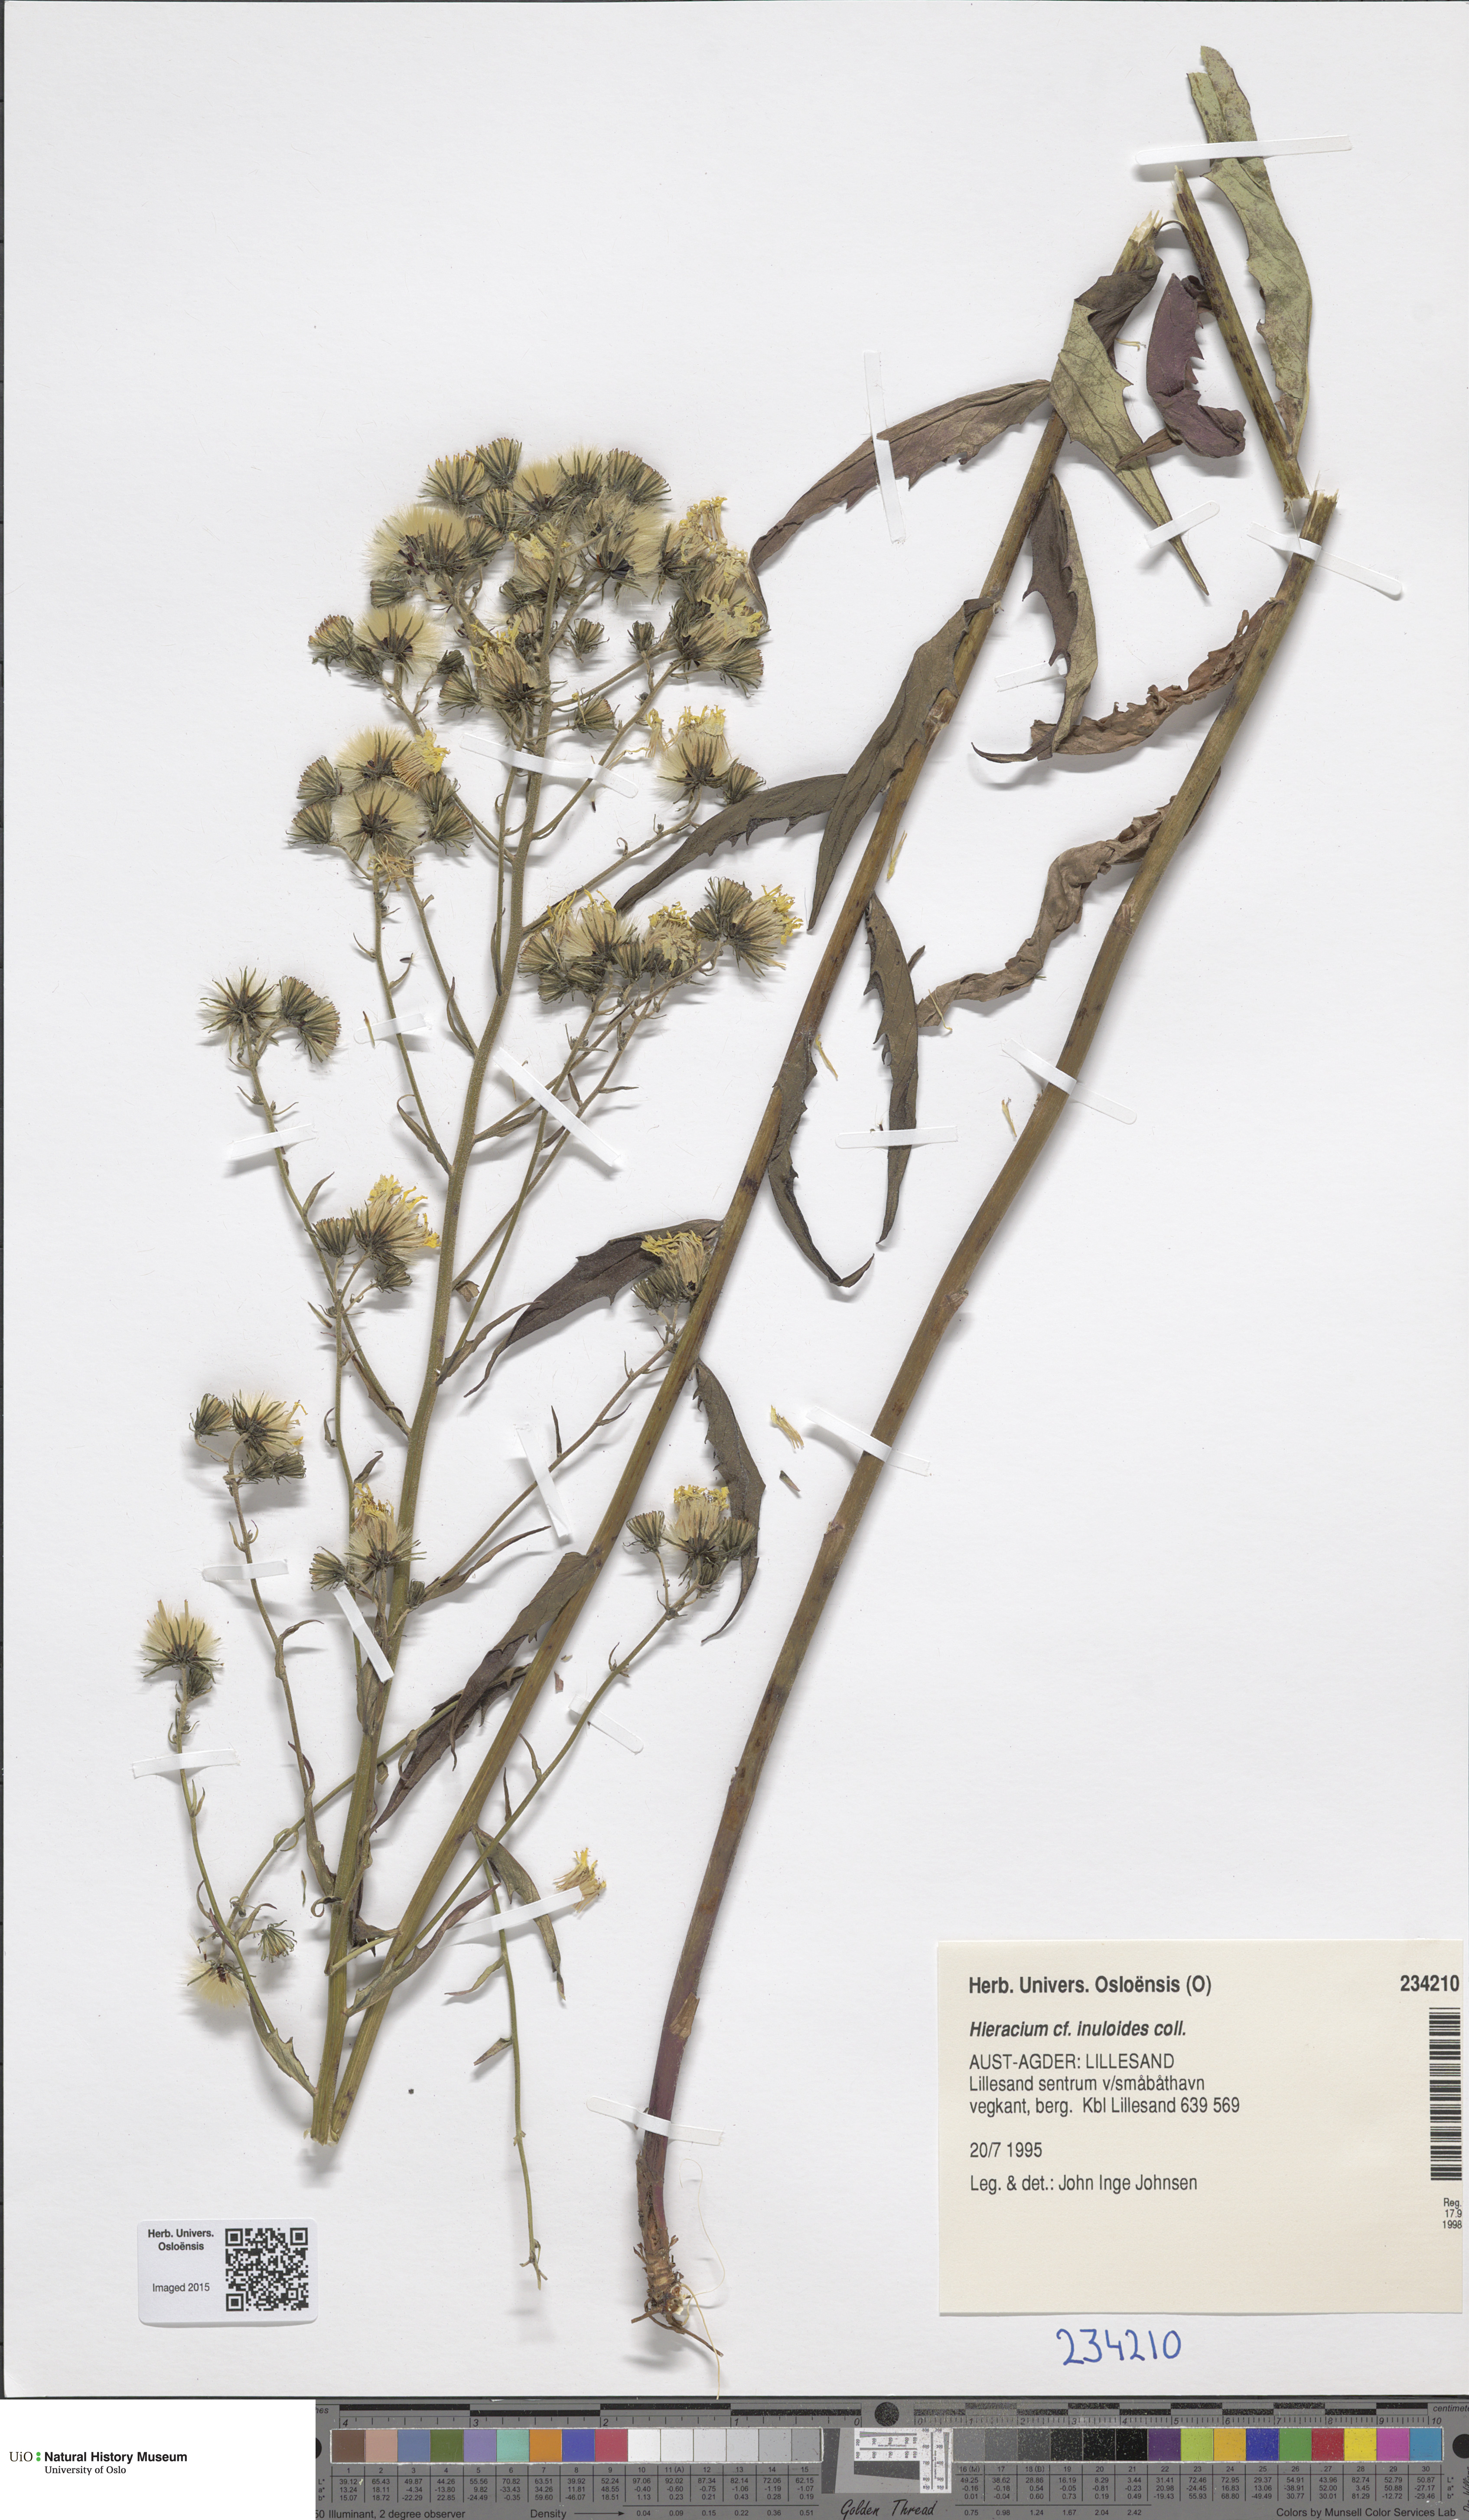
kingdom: Plantae
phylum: Tracheophyta
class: Magnoliopsida
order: Asterales
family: Asteraceae
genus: Hieracium
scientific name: Hieracium inuloides
